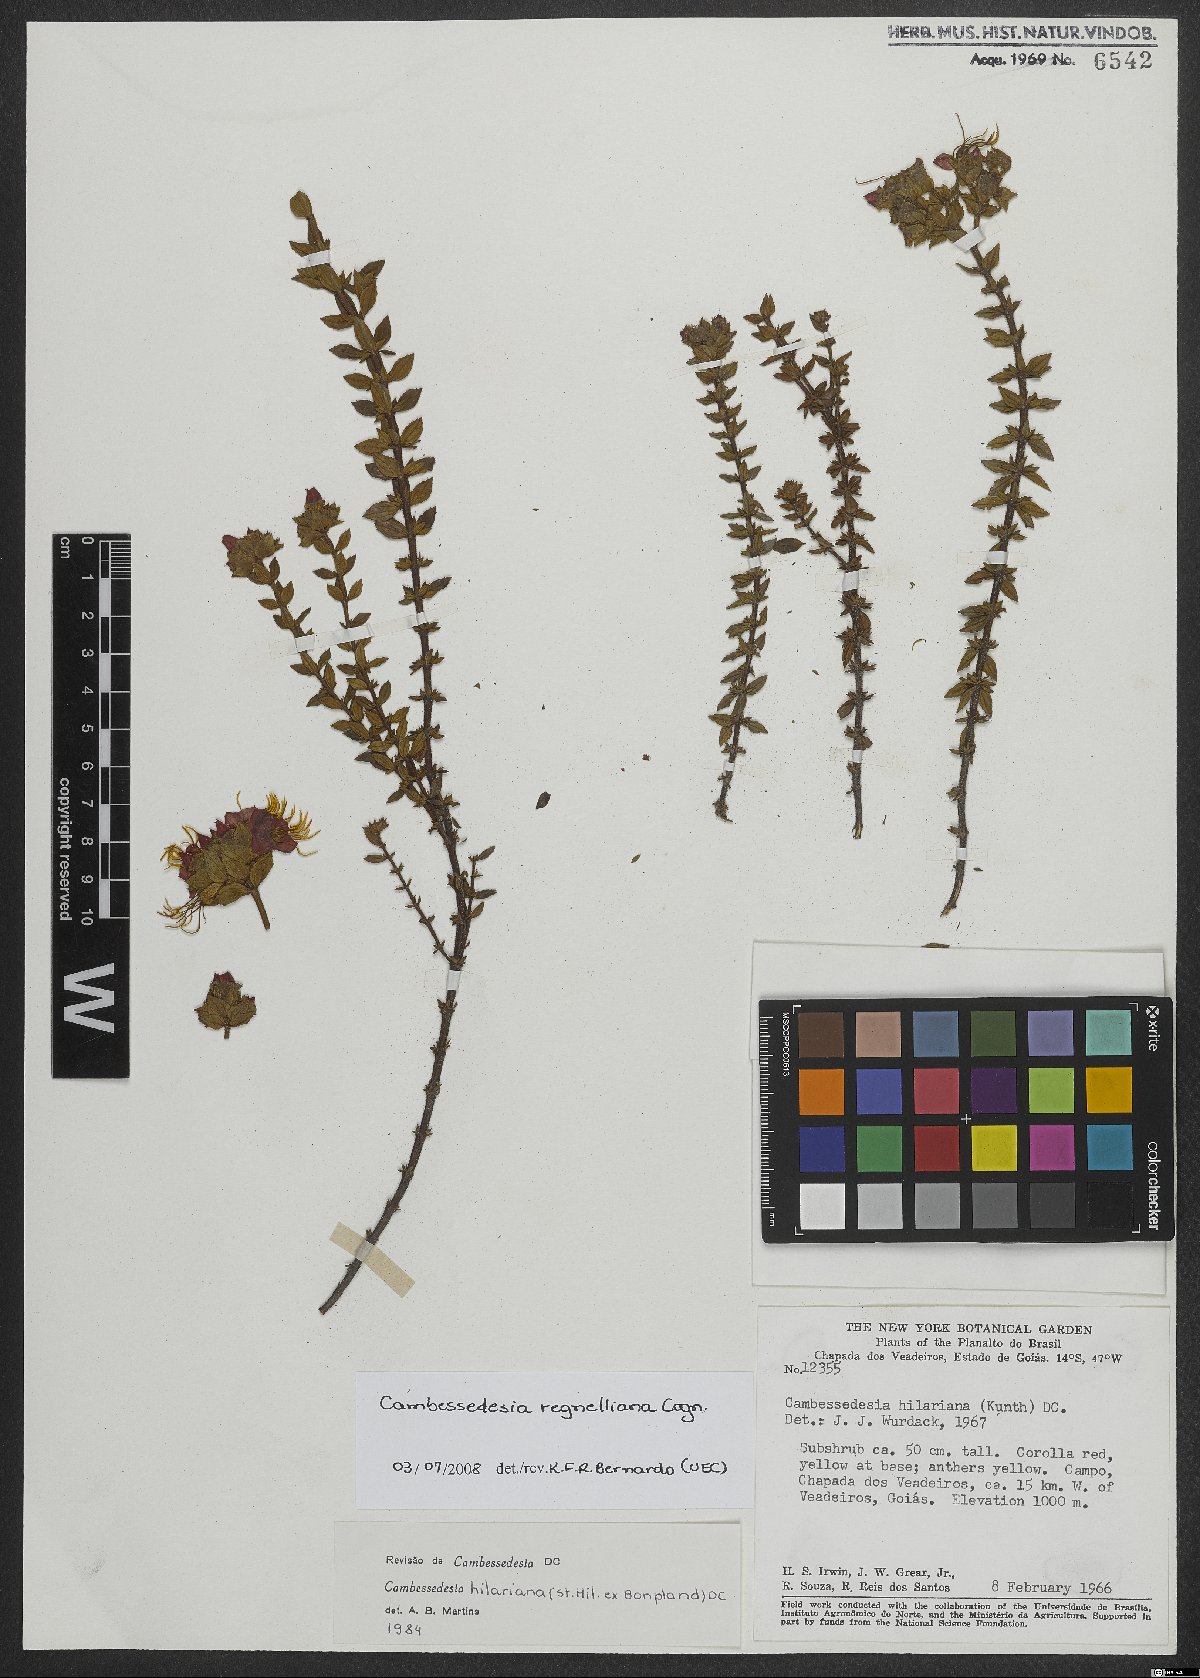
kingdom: Plantae
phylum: Tracheophyta
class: Magnoliopsida
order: Myrtales
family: Melastomataceae
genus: Cambessedesia
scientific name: Cambessedesia hilariana
